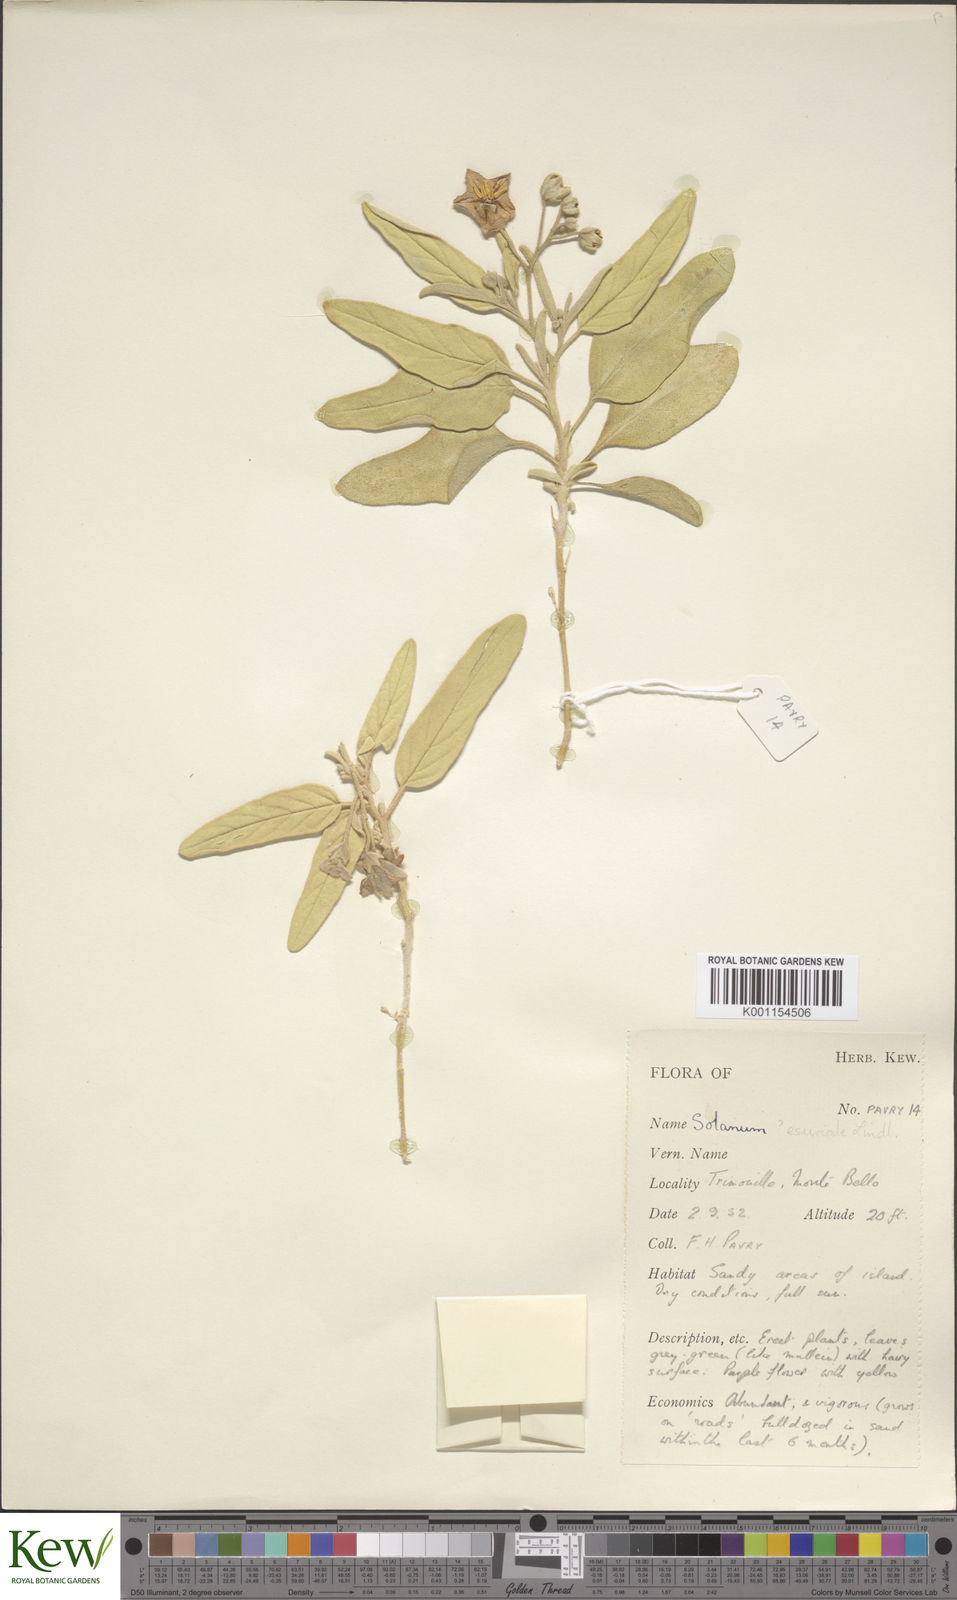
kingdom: Plantae
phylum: Tracheophyta
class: Magnoliopsida
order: Solanales
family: Solanaceae
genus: Solanum
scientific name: Solanum esuriale
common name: Wild tomato
